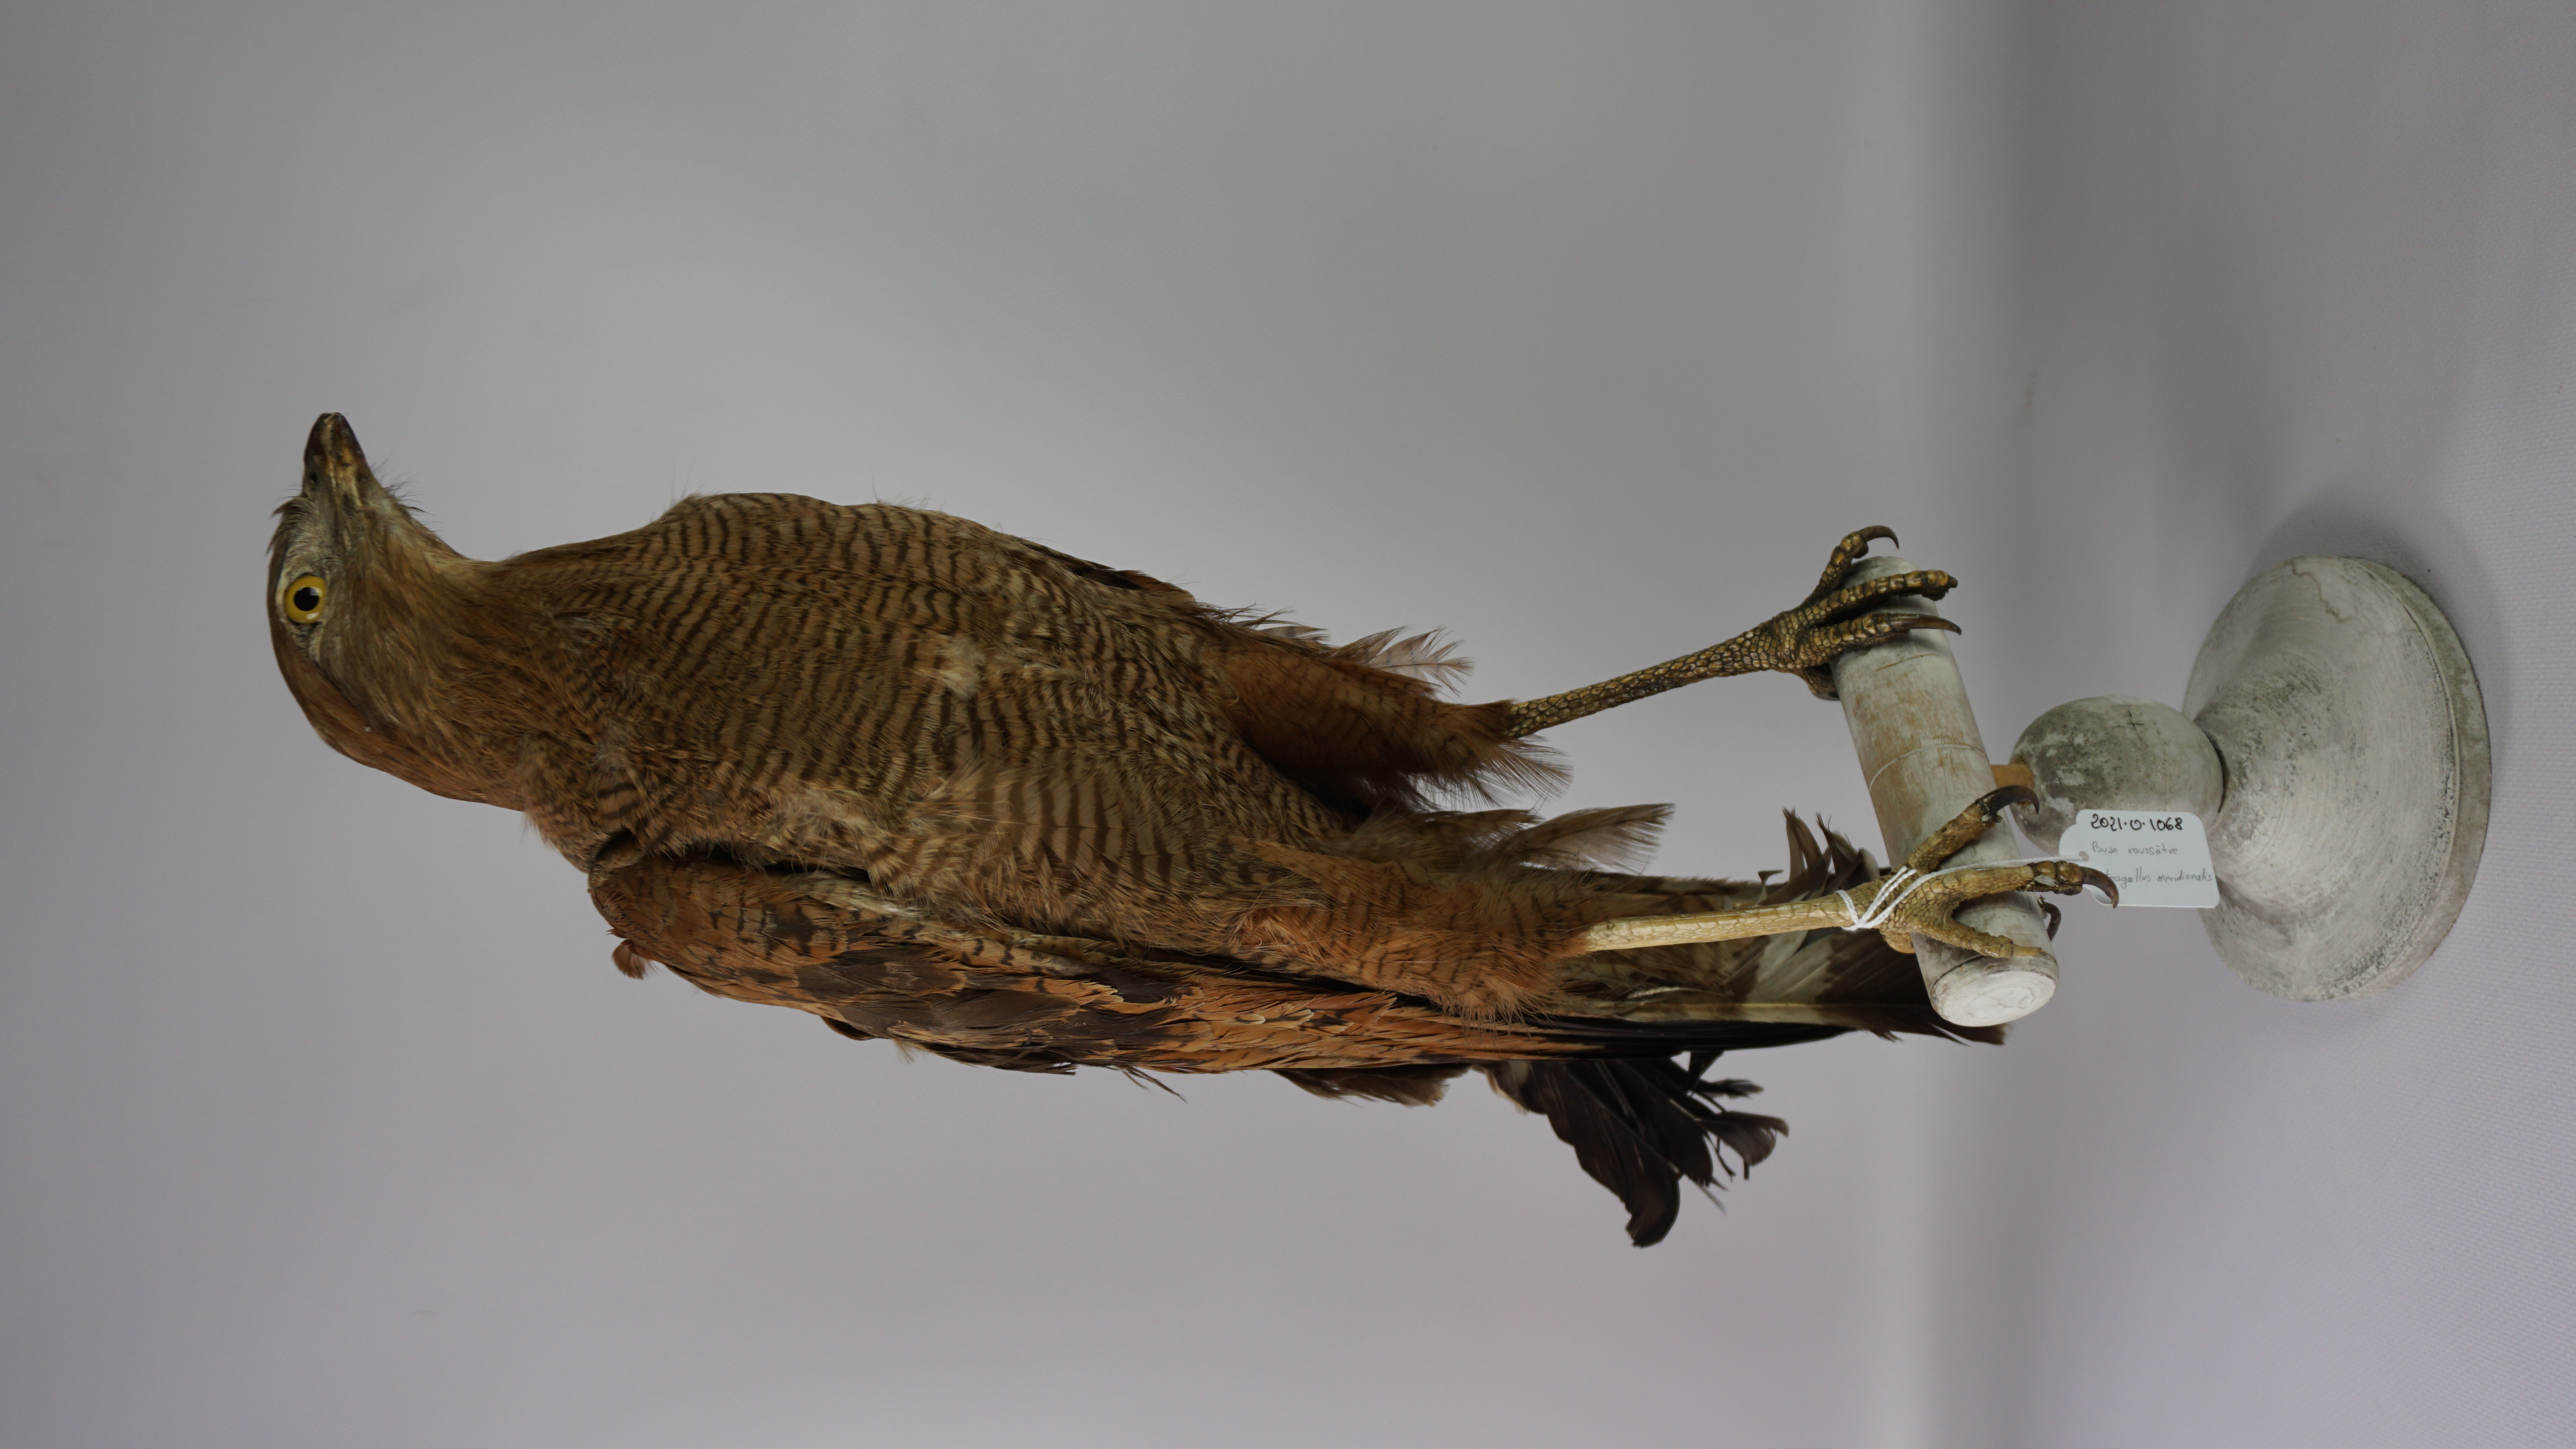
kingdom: Animalia
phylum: Chordata
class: Aves
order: Accipitriformes
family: Accipitridae
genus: Buteogallus
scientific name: Buteogallus meridionalis
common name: Savanna hawk
